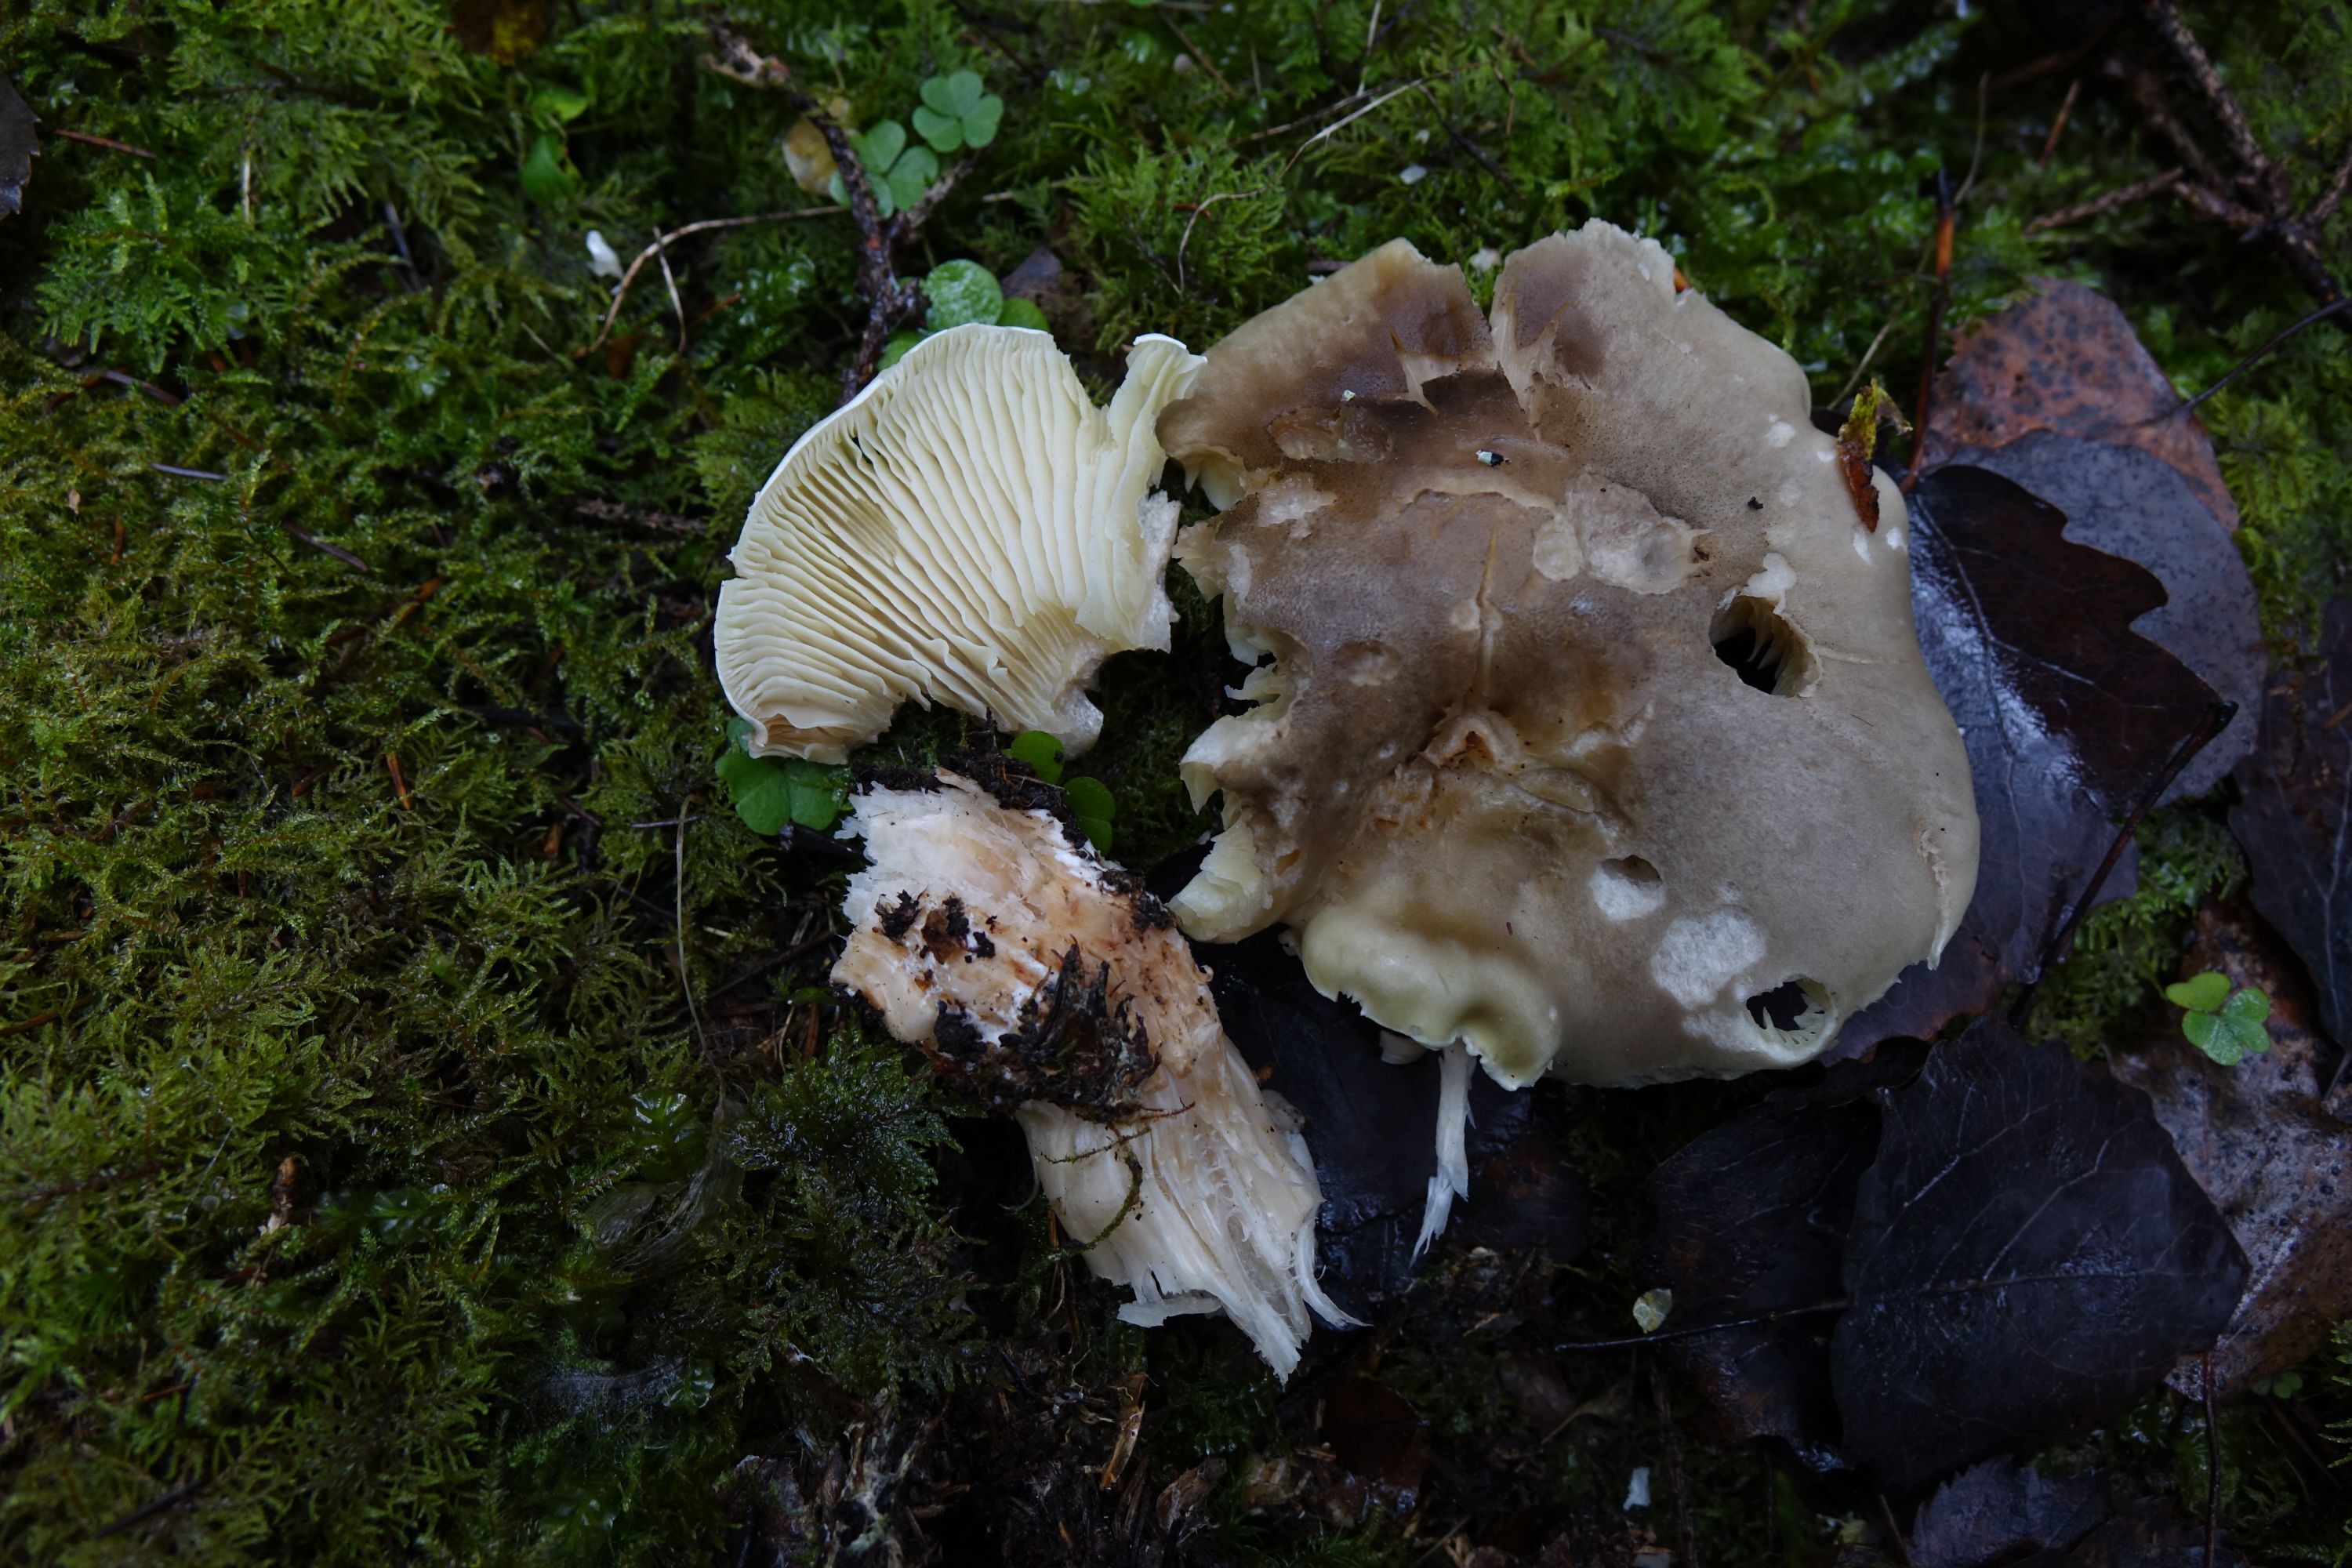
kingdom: Fungi
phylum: Basidiomycota
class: Agaricomycetes
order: Agaricales
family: Tricholomataceae
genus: Tricholoma
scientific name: Tricholoma saponaceum
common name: Soapy trich
